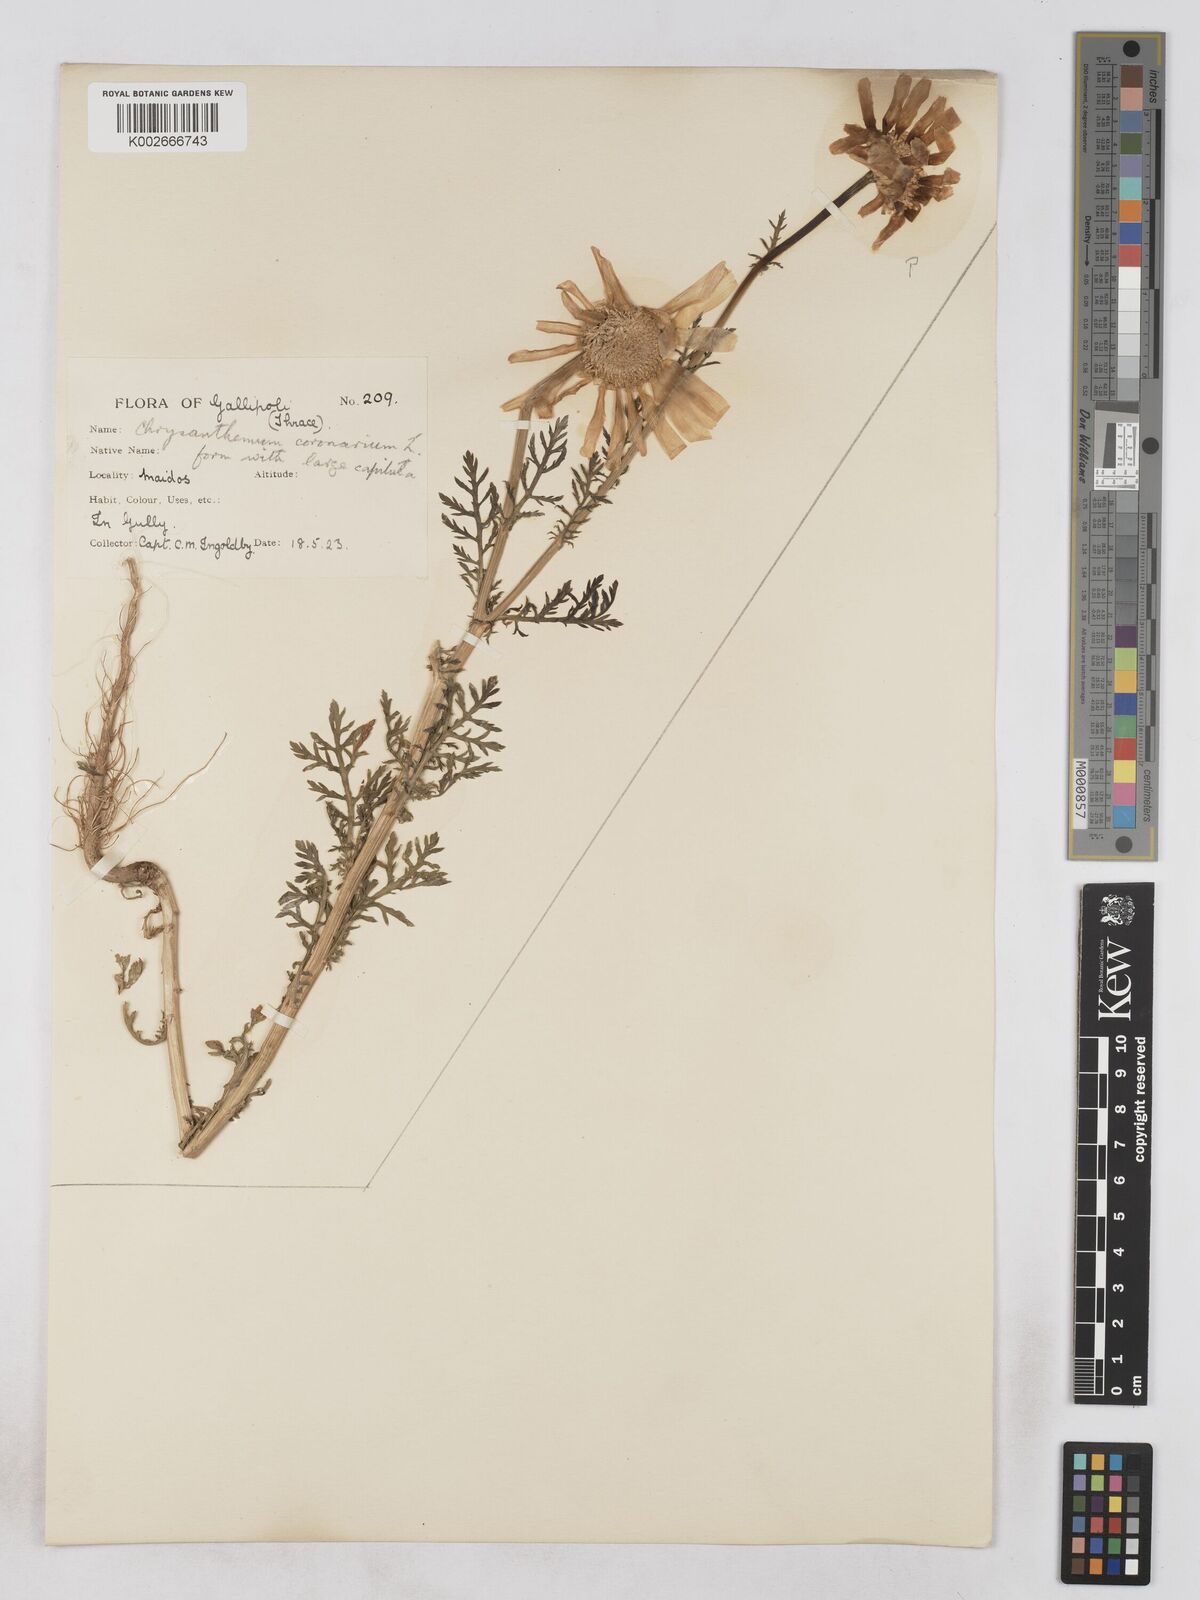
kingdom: Plantae
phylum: Tracheophyta
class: Magnoliopsida
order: Asterales
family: Asteraceae
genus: Glebionis
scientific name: Glebionis coronaria
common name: Crowndaisy
